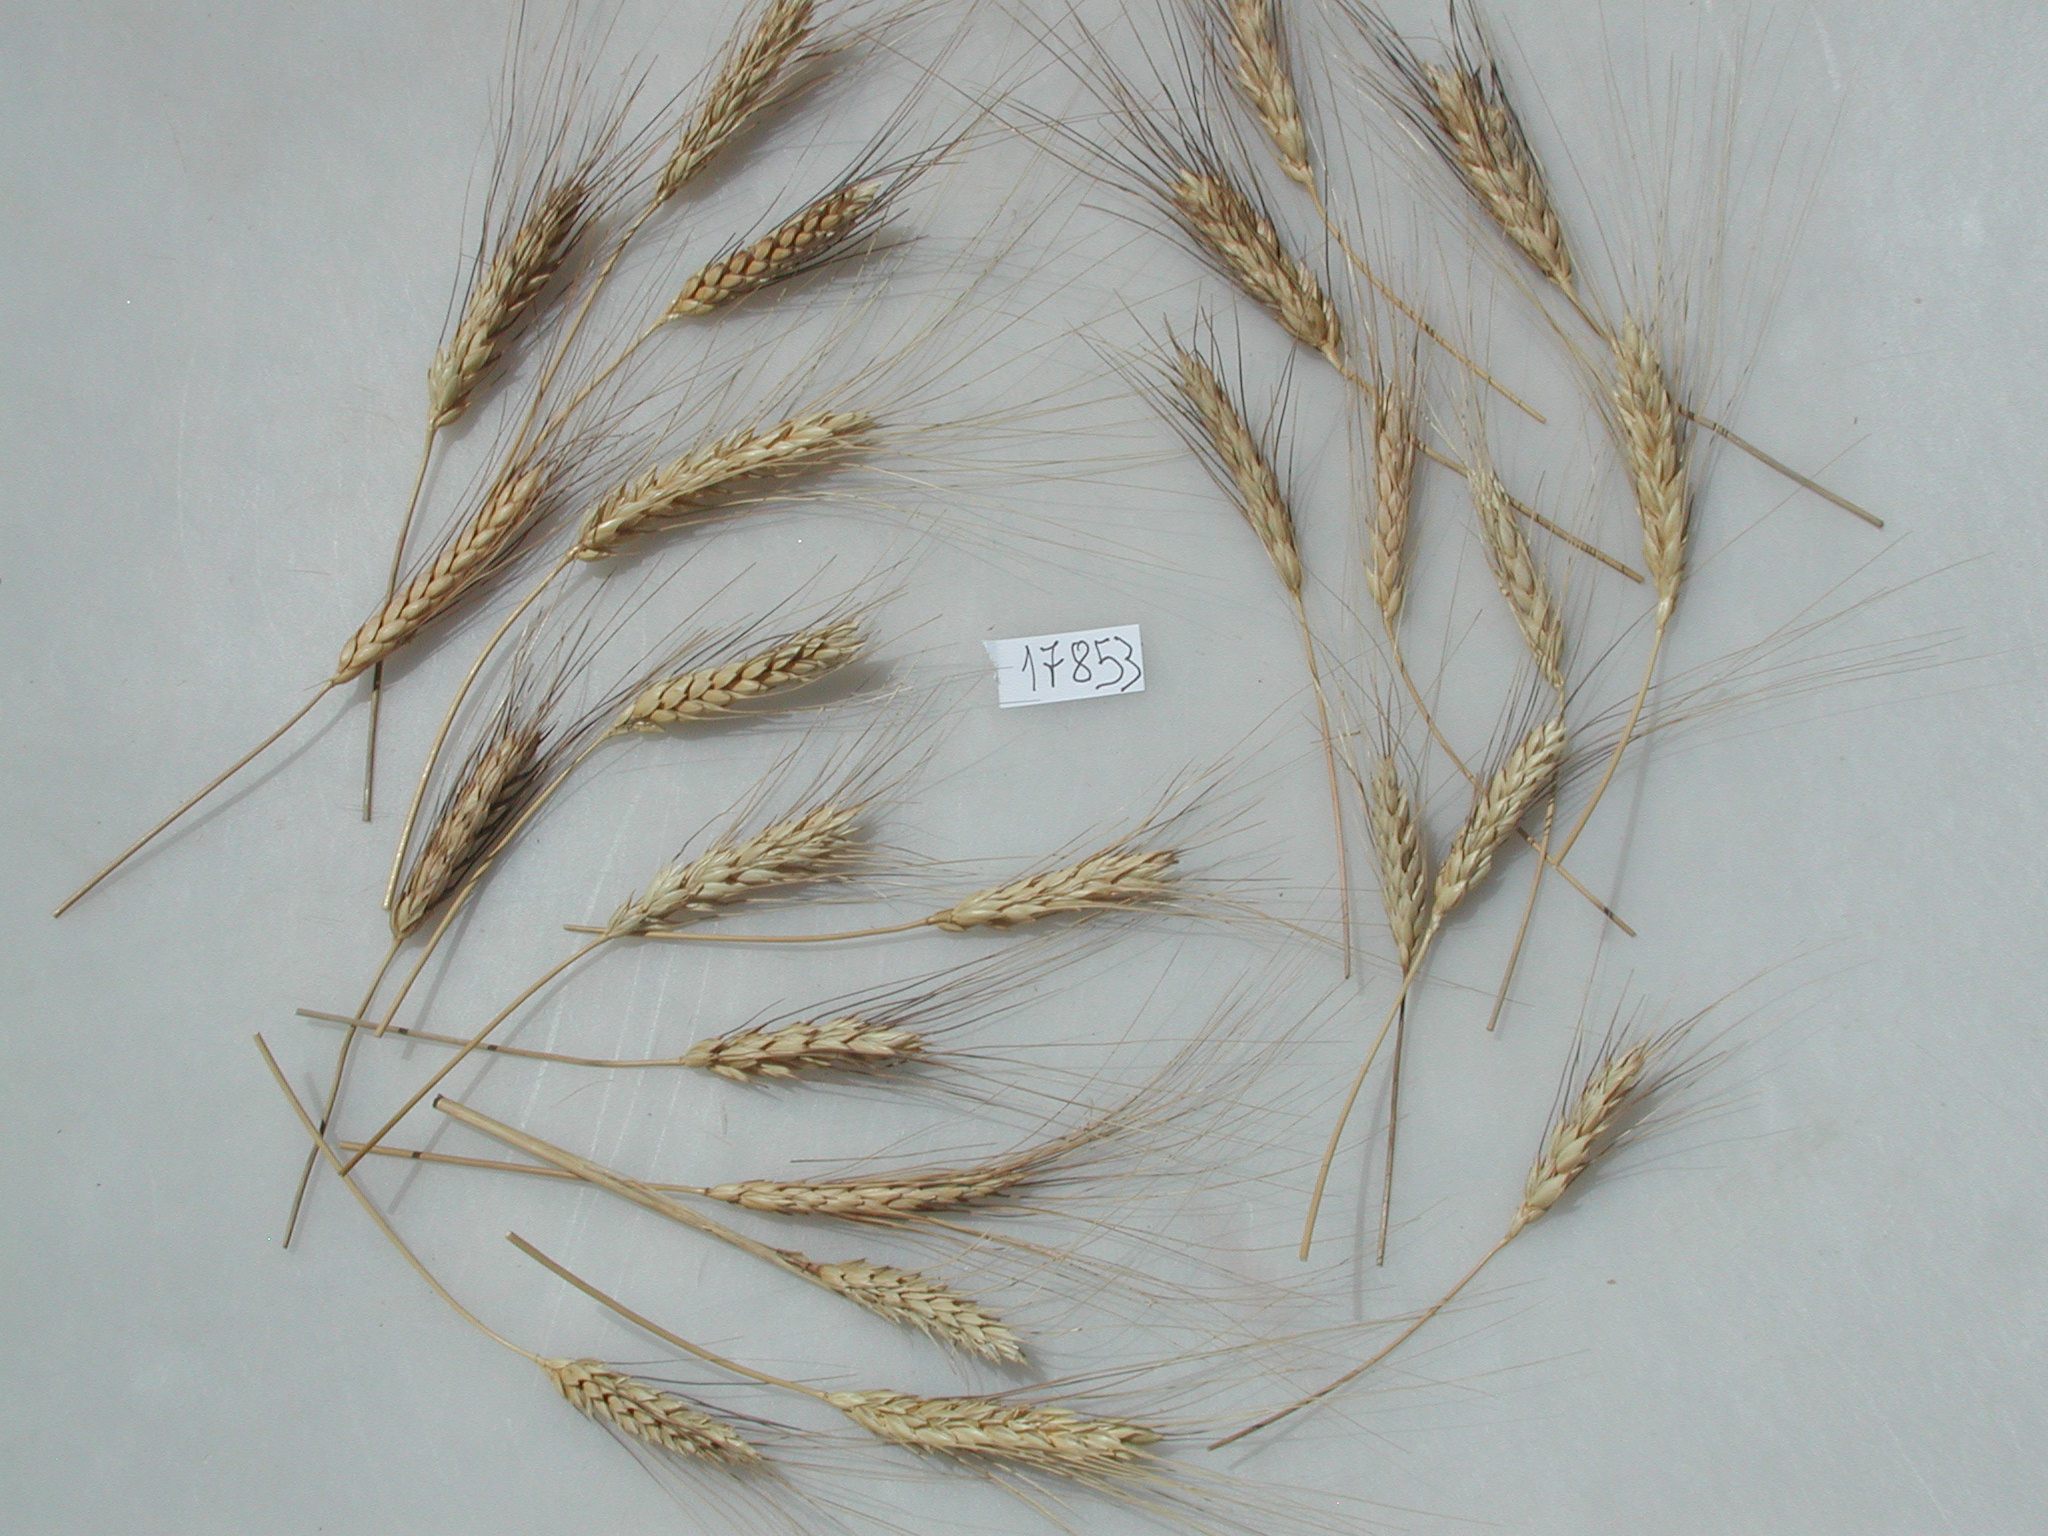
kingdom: Plantae
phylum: Tracheophyta
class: Liliopsida
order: Poales
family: Poaceae
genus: Triticum
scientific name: Triticum turgidum
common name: Wheat
